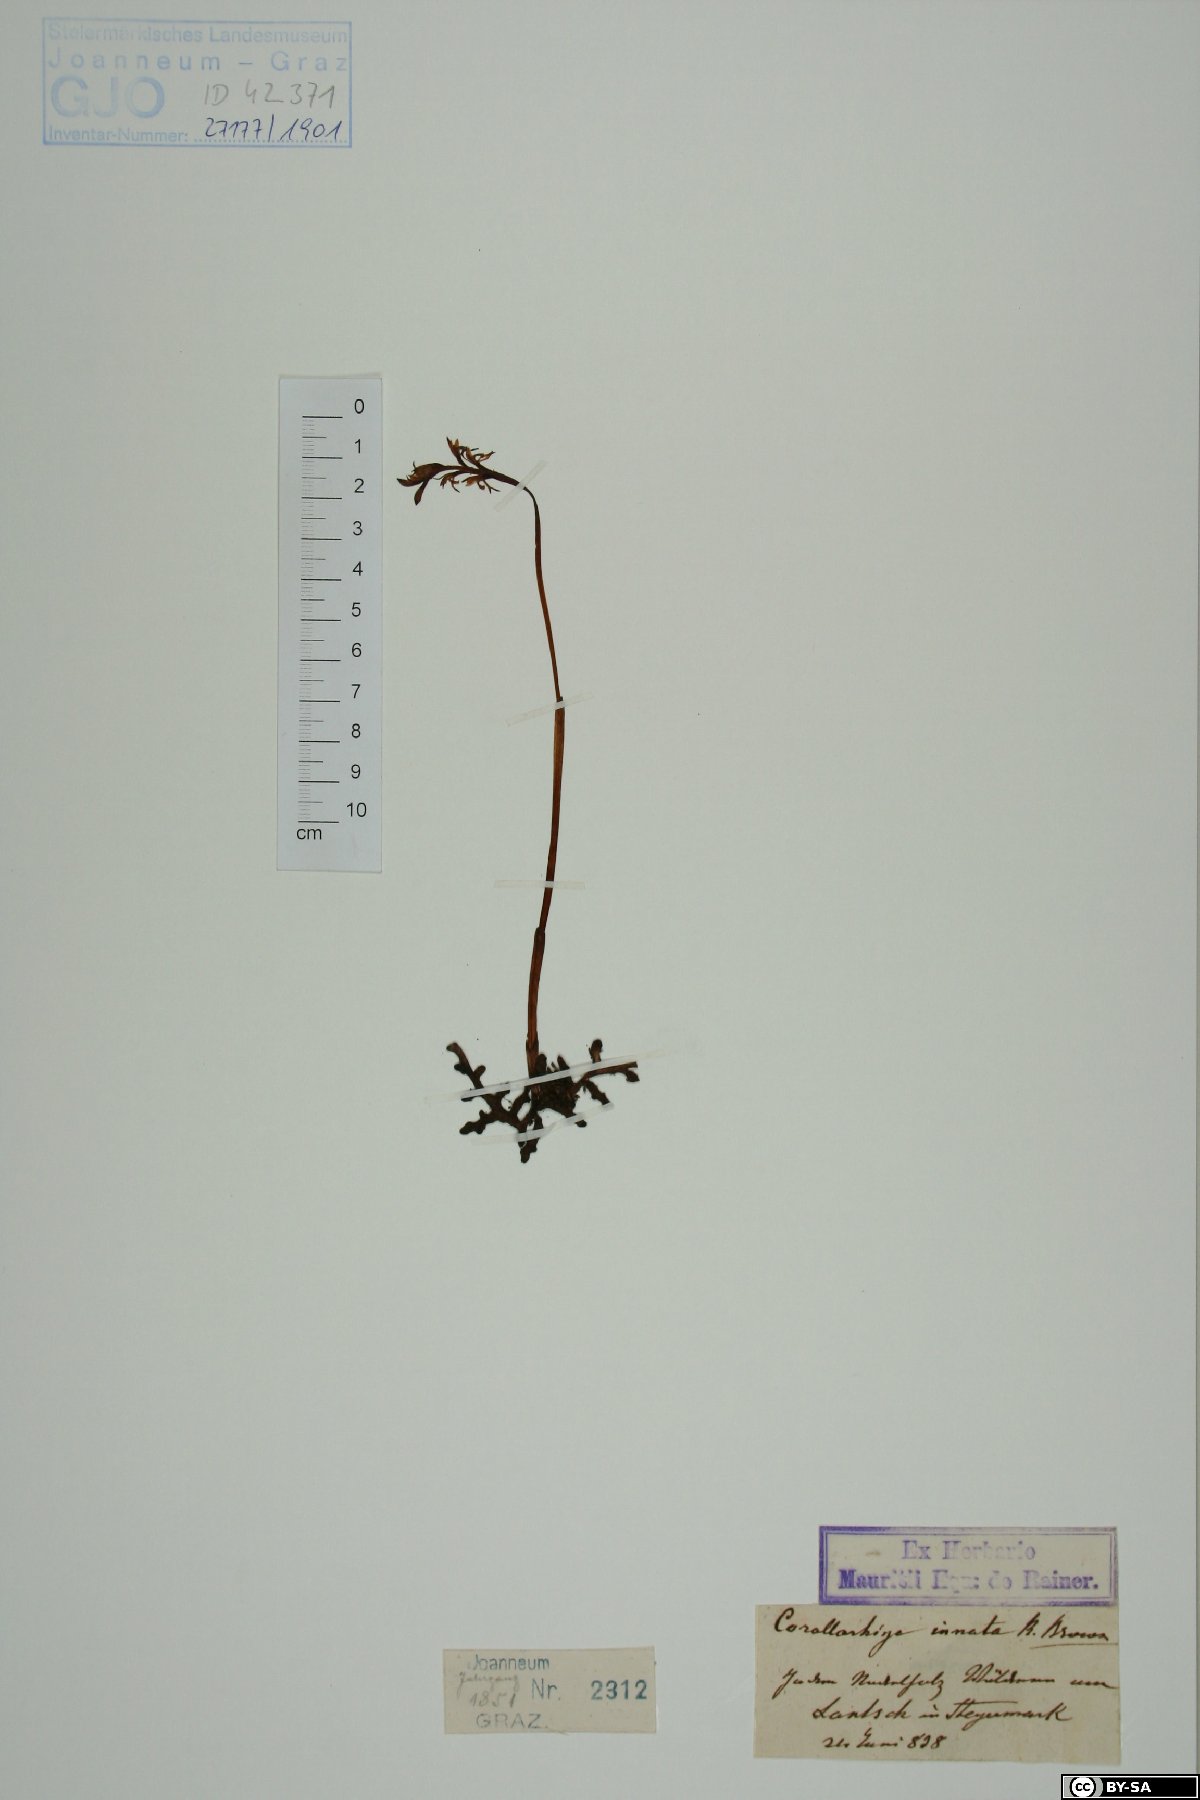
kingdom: Plantae
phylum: Tracheophyta
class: Liliopsida
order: Asparagales
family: Orchidaceae
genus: Corallorhiza
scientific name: Corallorhiza trifida
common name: Yellow coralroot
